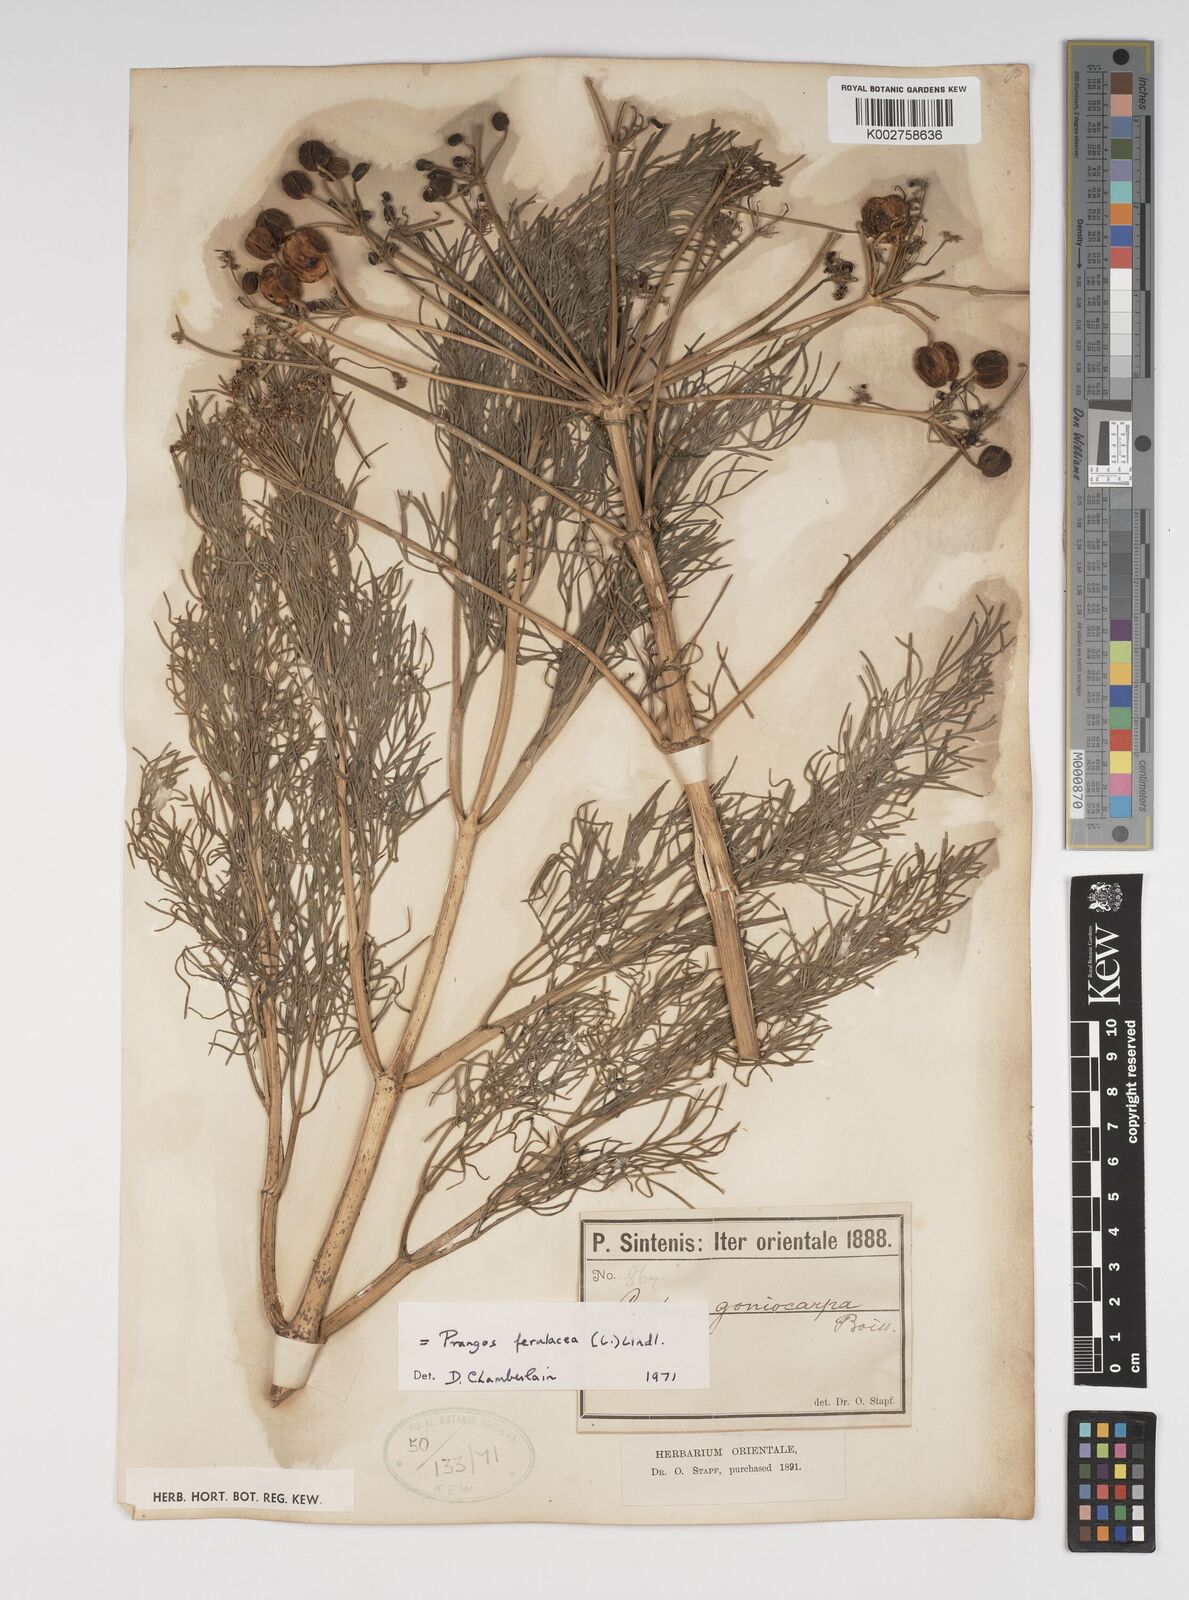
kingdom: Plantae
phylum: Tracheophyta
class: Magnoliopsida
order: Apiales
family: Apiaceae
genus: Prangos
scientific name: Prangos ferulacea
